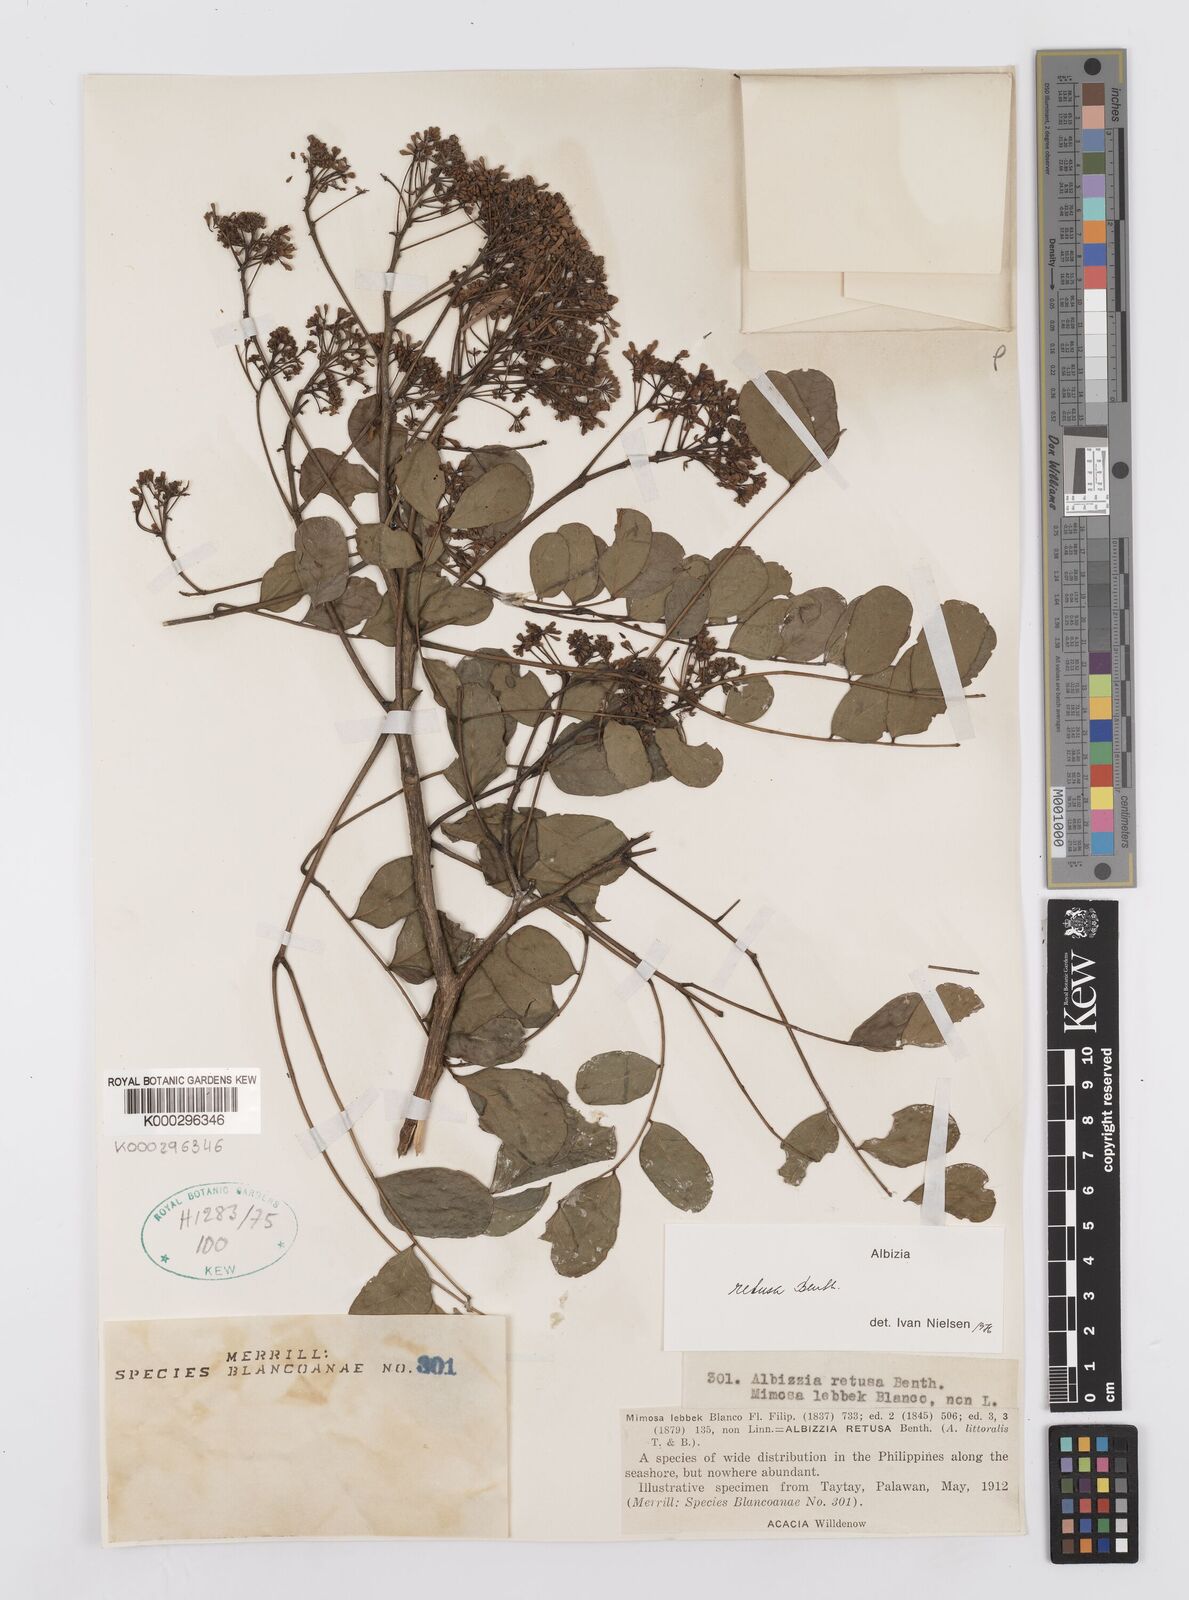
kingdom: Plantae
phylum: Tracheophyta
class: Magnoliopsida
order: Fabales
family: Fabaceae
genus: Albizia
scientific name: Albizia retusa
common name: Sea albizia
